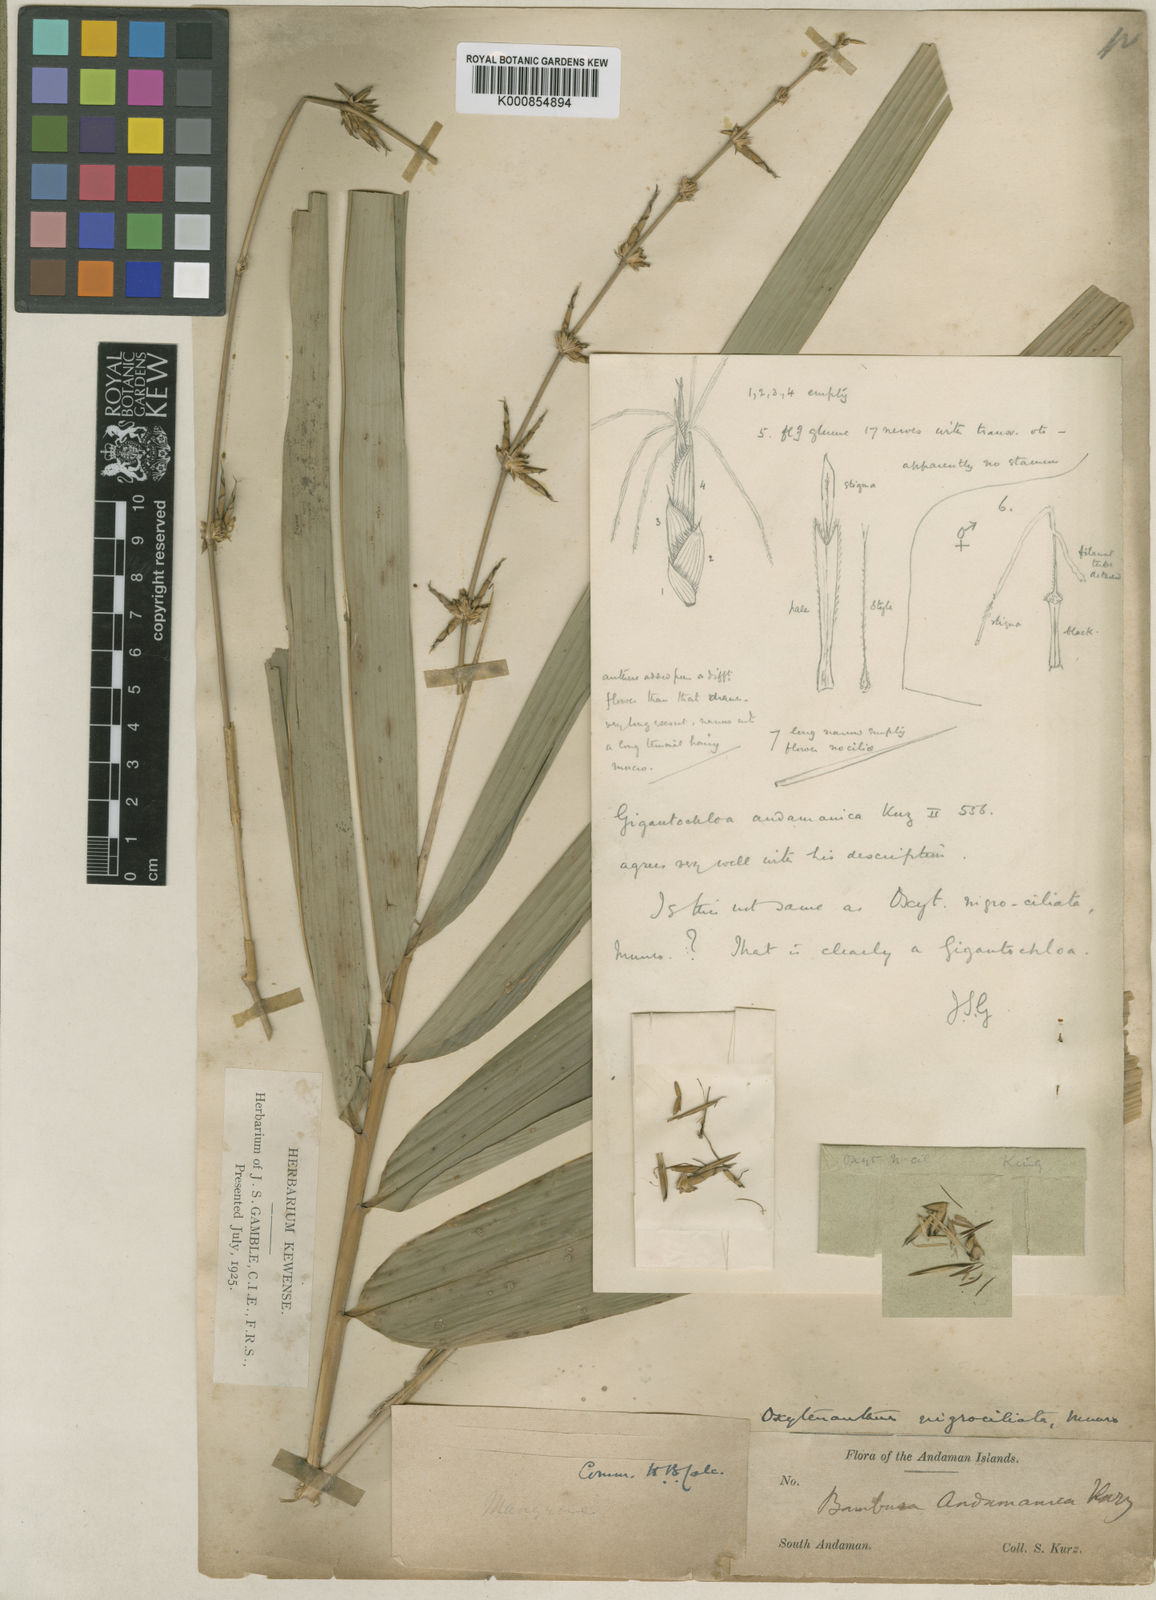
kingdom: Plantae
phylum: Tracheophyta
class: Liliopsida
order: Poales
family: Poaceae
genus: Gigantochloa
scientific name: Gigantochloa nigrociliata
